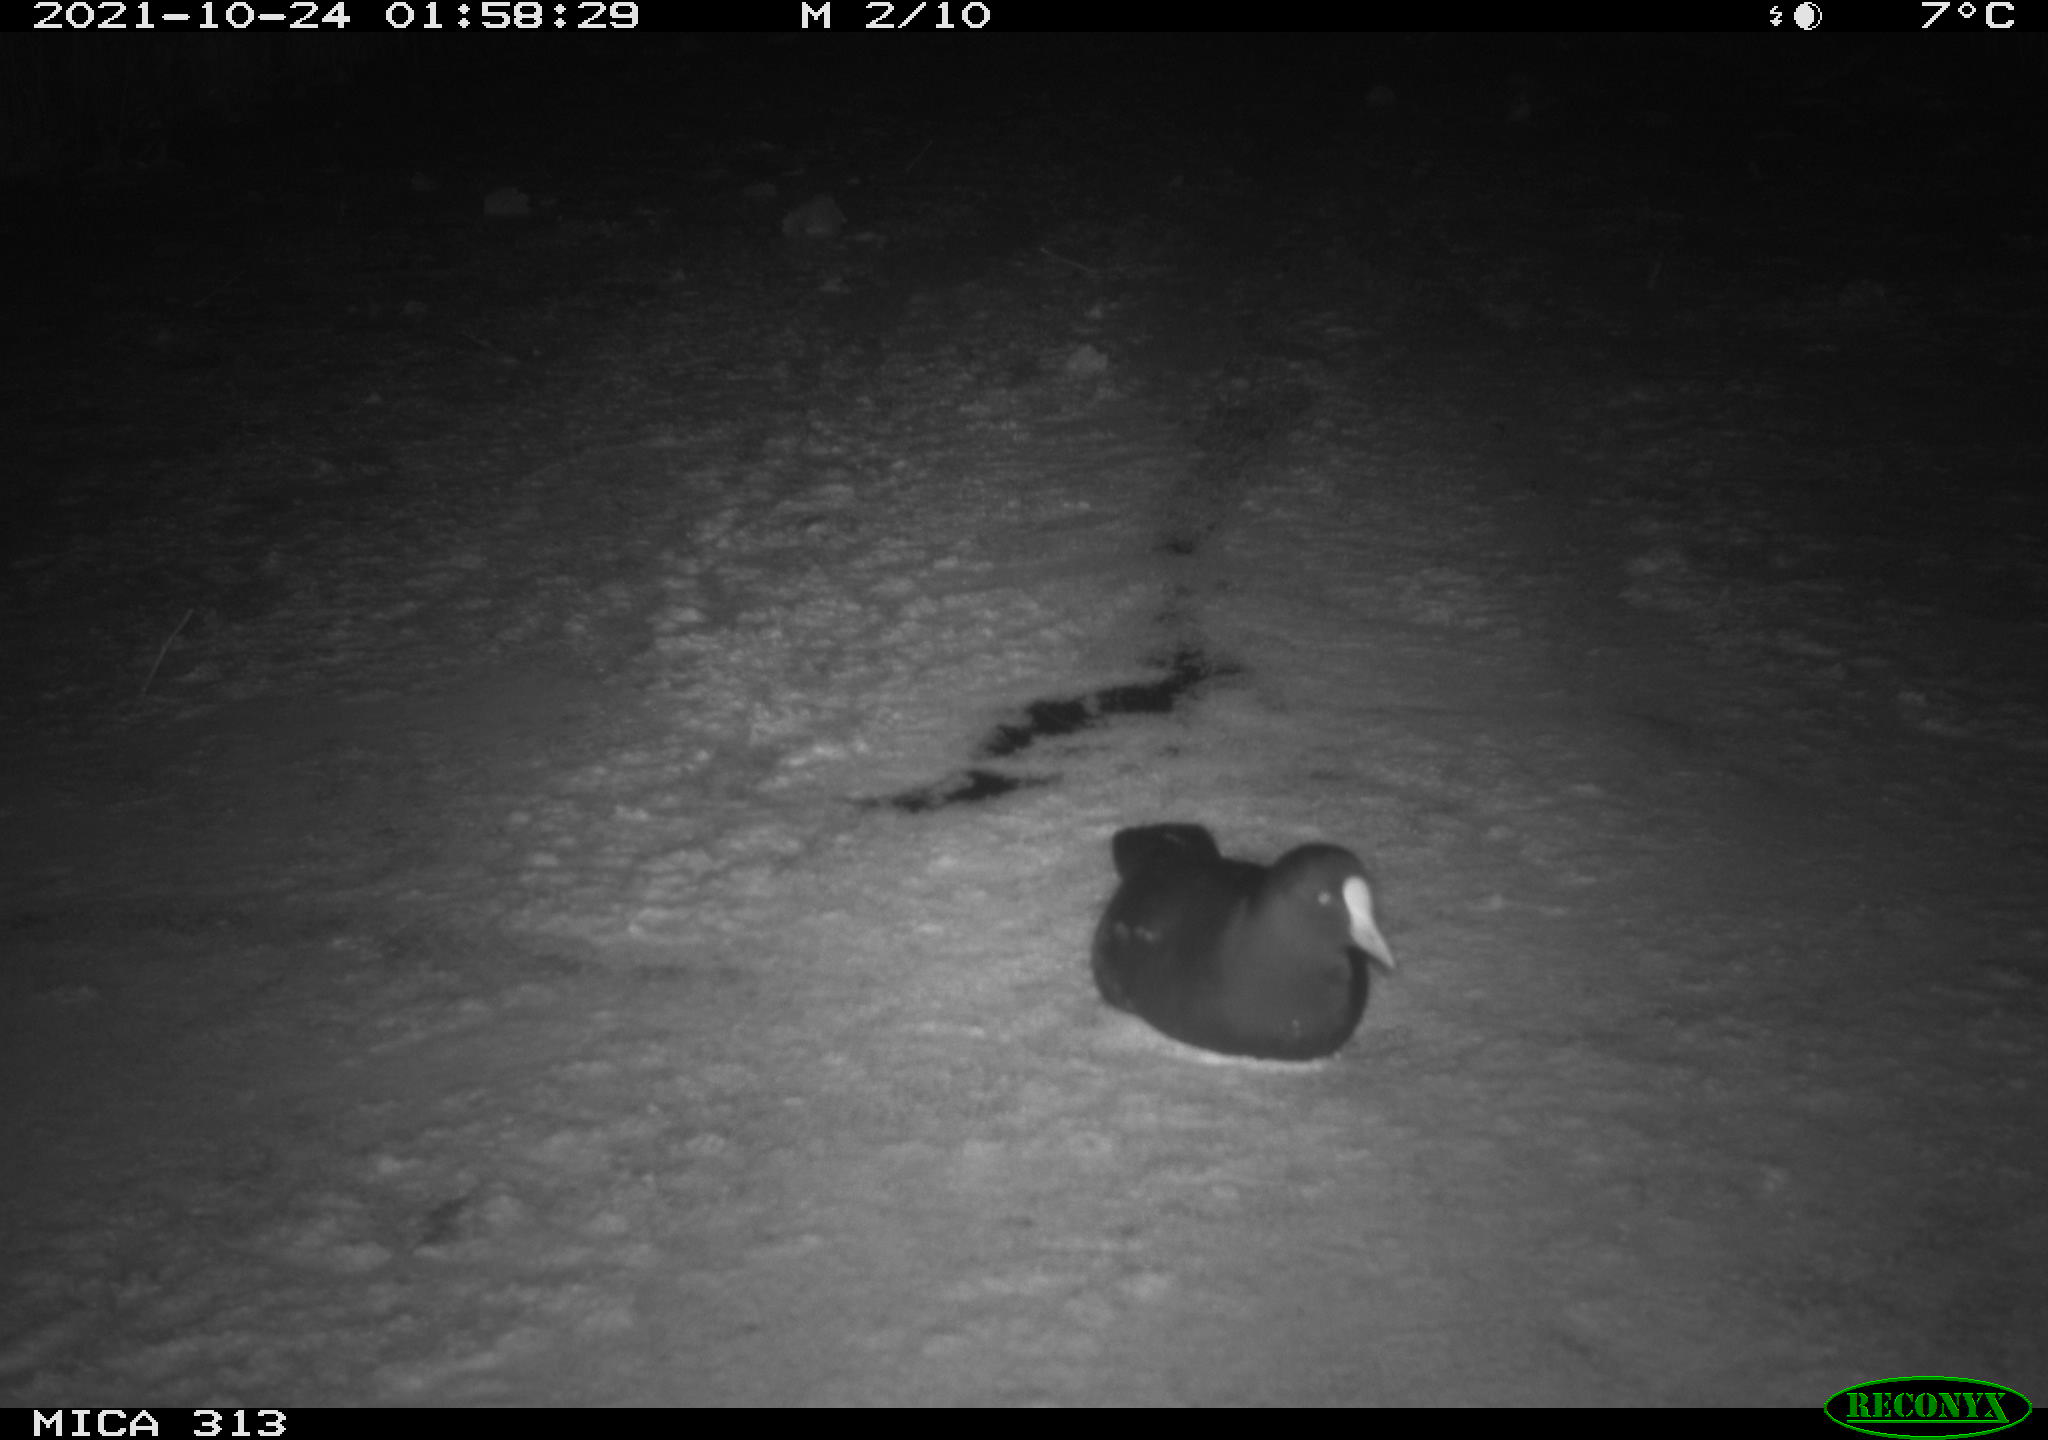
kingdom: Animalia
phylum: Chordata
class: Aves
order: Gruiformes
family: Rallidae
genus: Gallinula
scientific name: Gallinula chloropus
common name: Common moorhen
